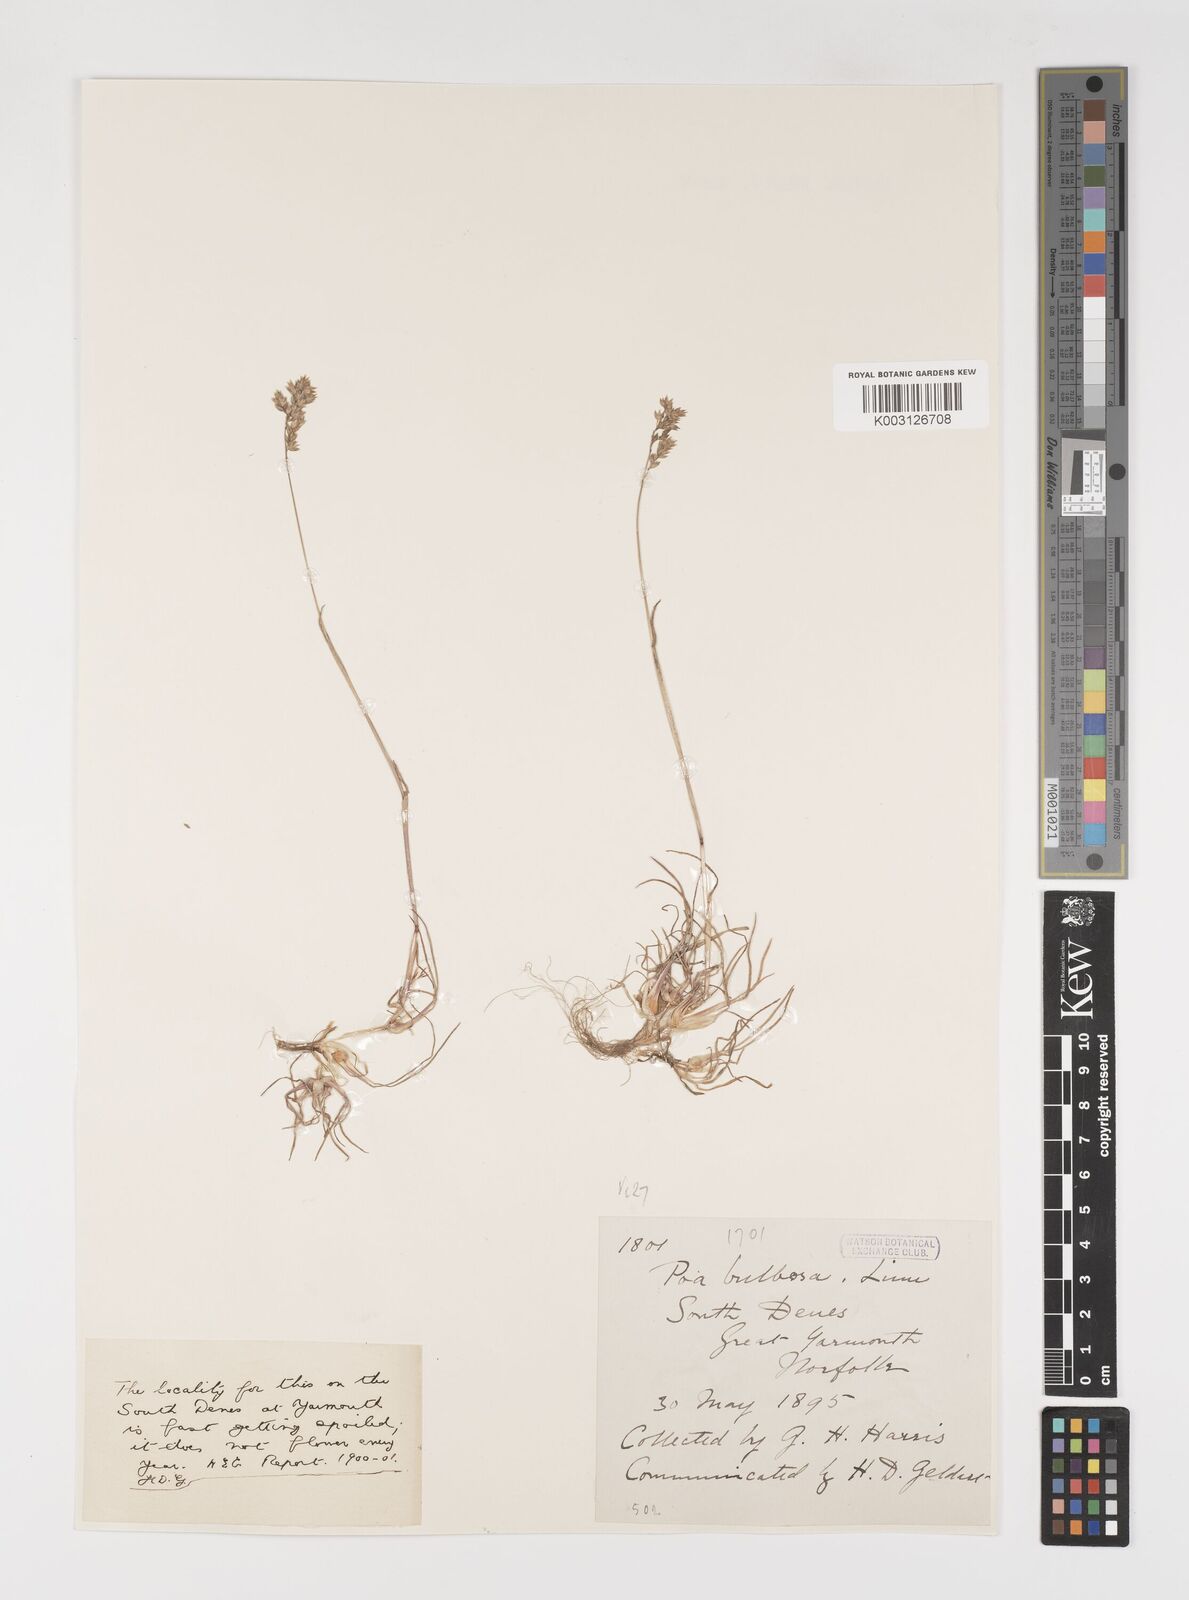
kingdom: Plantae
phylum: Tracheophyta
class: Liliopsida
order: Poales
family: Poaceae
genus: Poa
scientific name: Poa bulbosa
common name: Bulbous bluegrass
